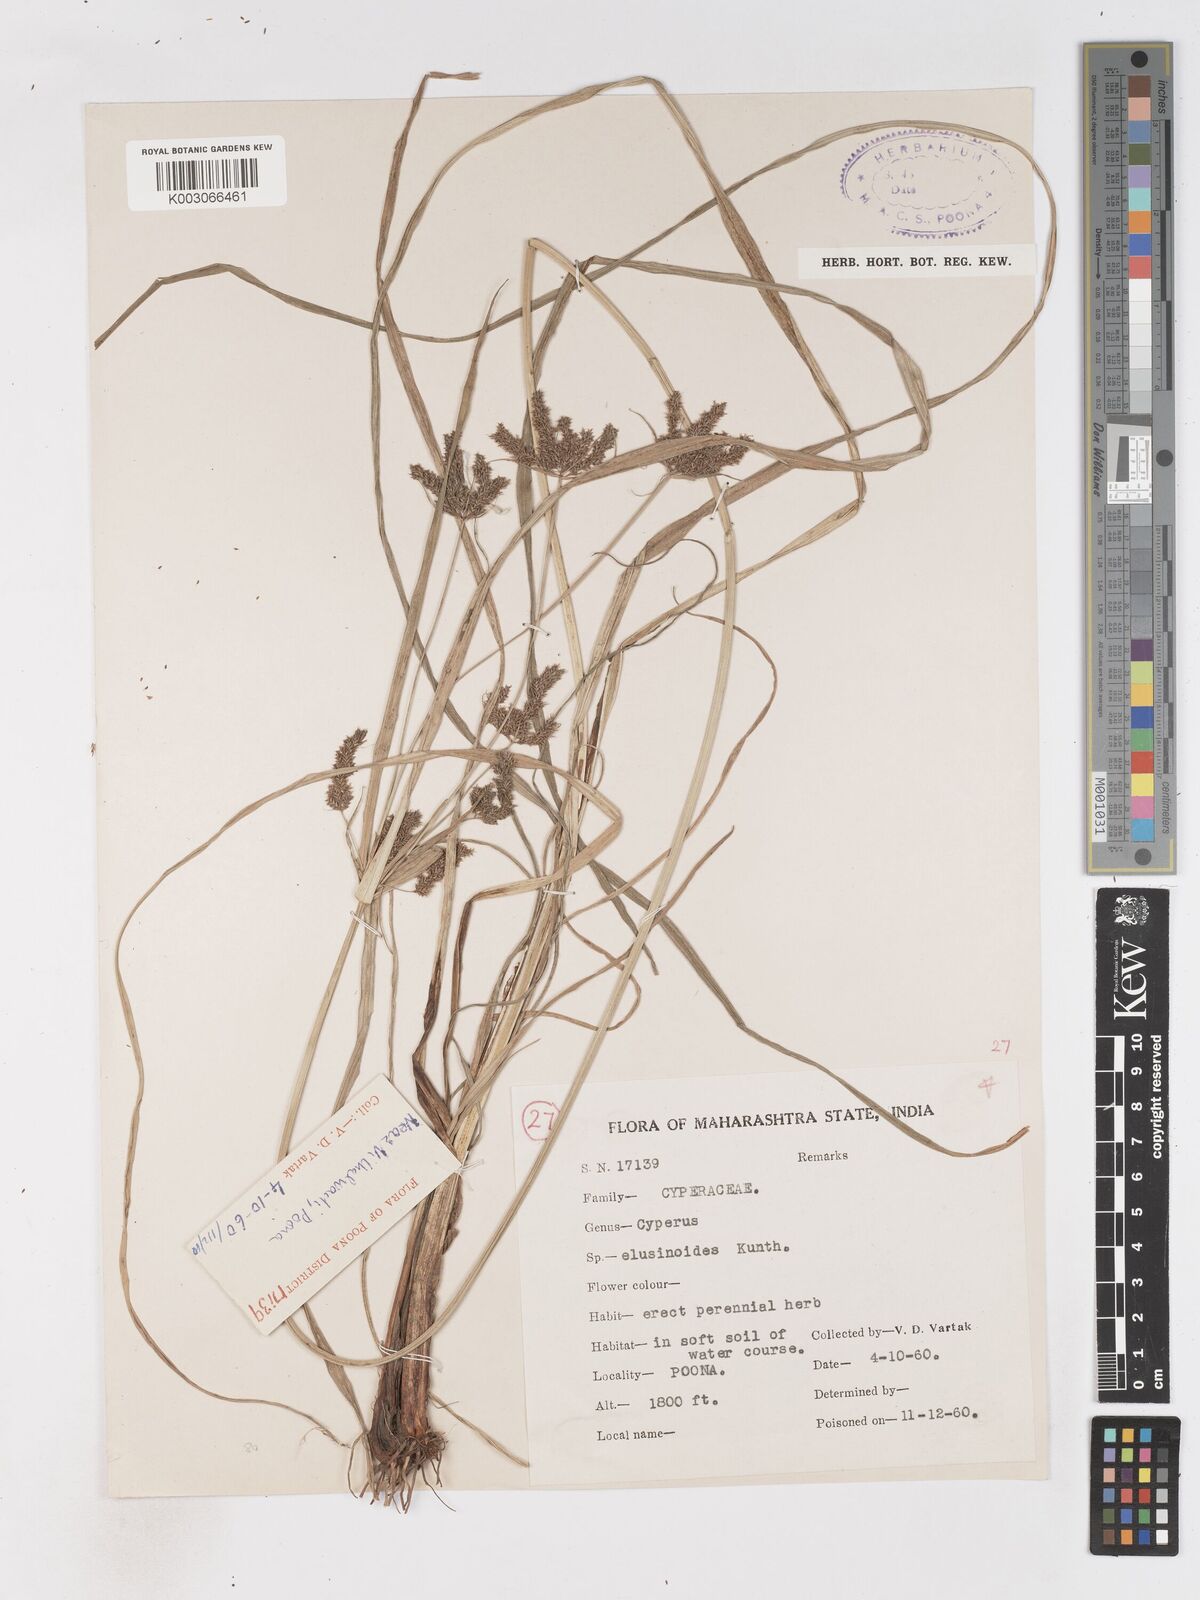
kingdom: Plantae
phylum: Tracheophyta
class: Liliopsida
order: Poales
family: Cyperaceae
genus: Cyperus
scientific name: Cyperus nutans
